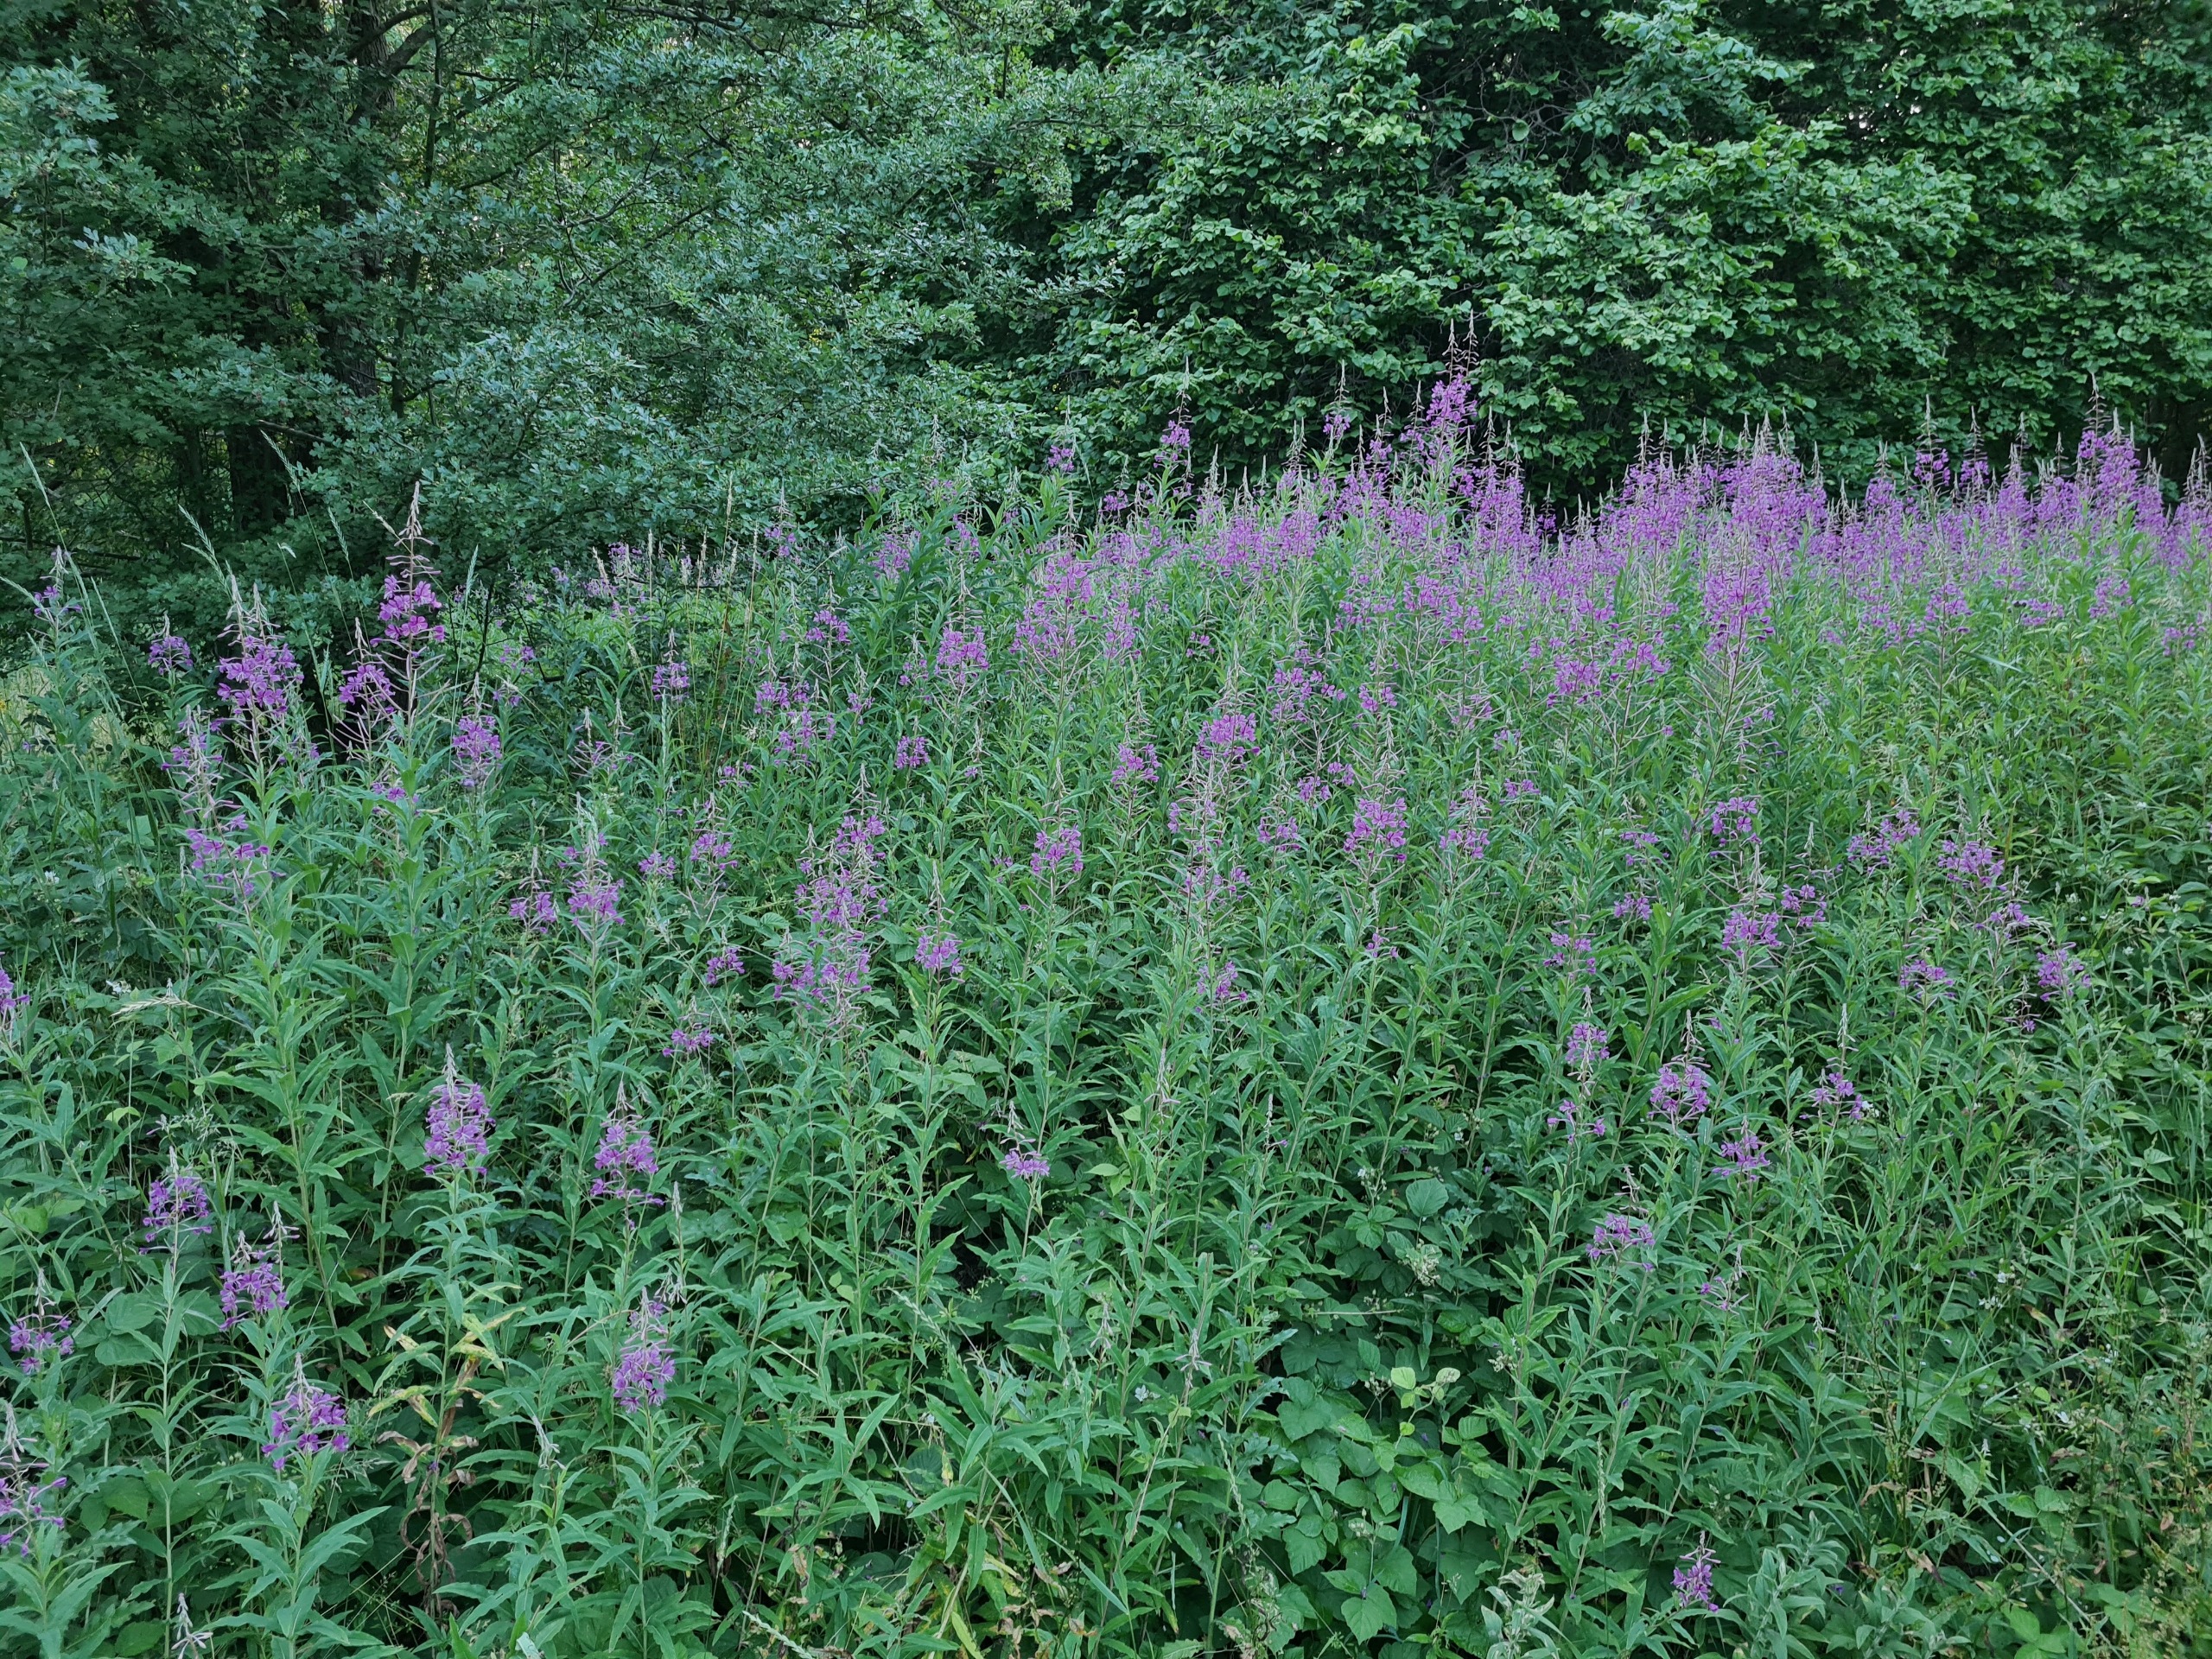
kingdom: Plantae
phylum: Tracheophyta
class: Magnoliopsida
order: Myrtales
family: Onagraceae
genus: Chamaenerion
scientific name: Chamaenerion angustifolium
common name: Gederams
